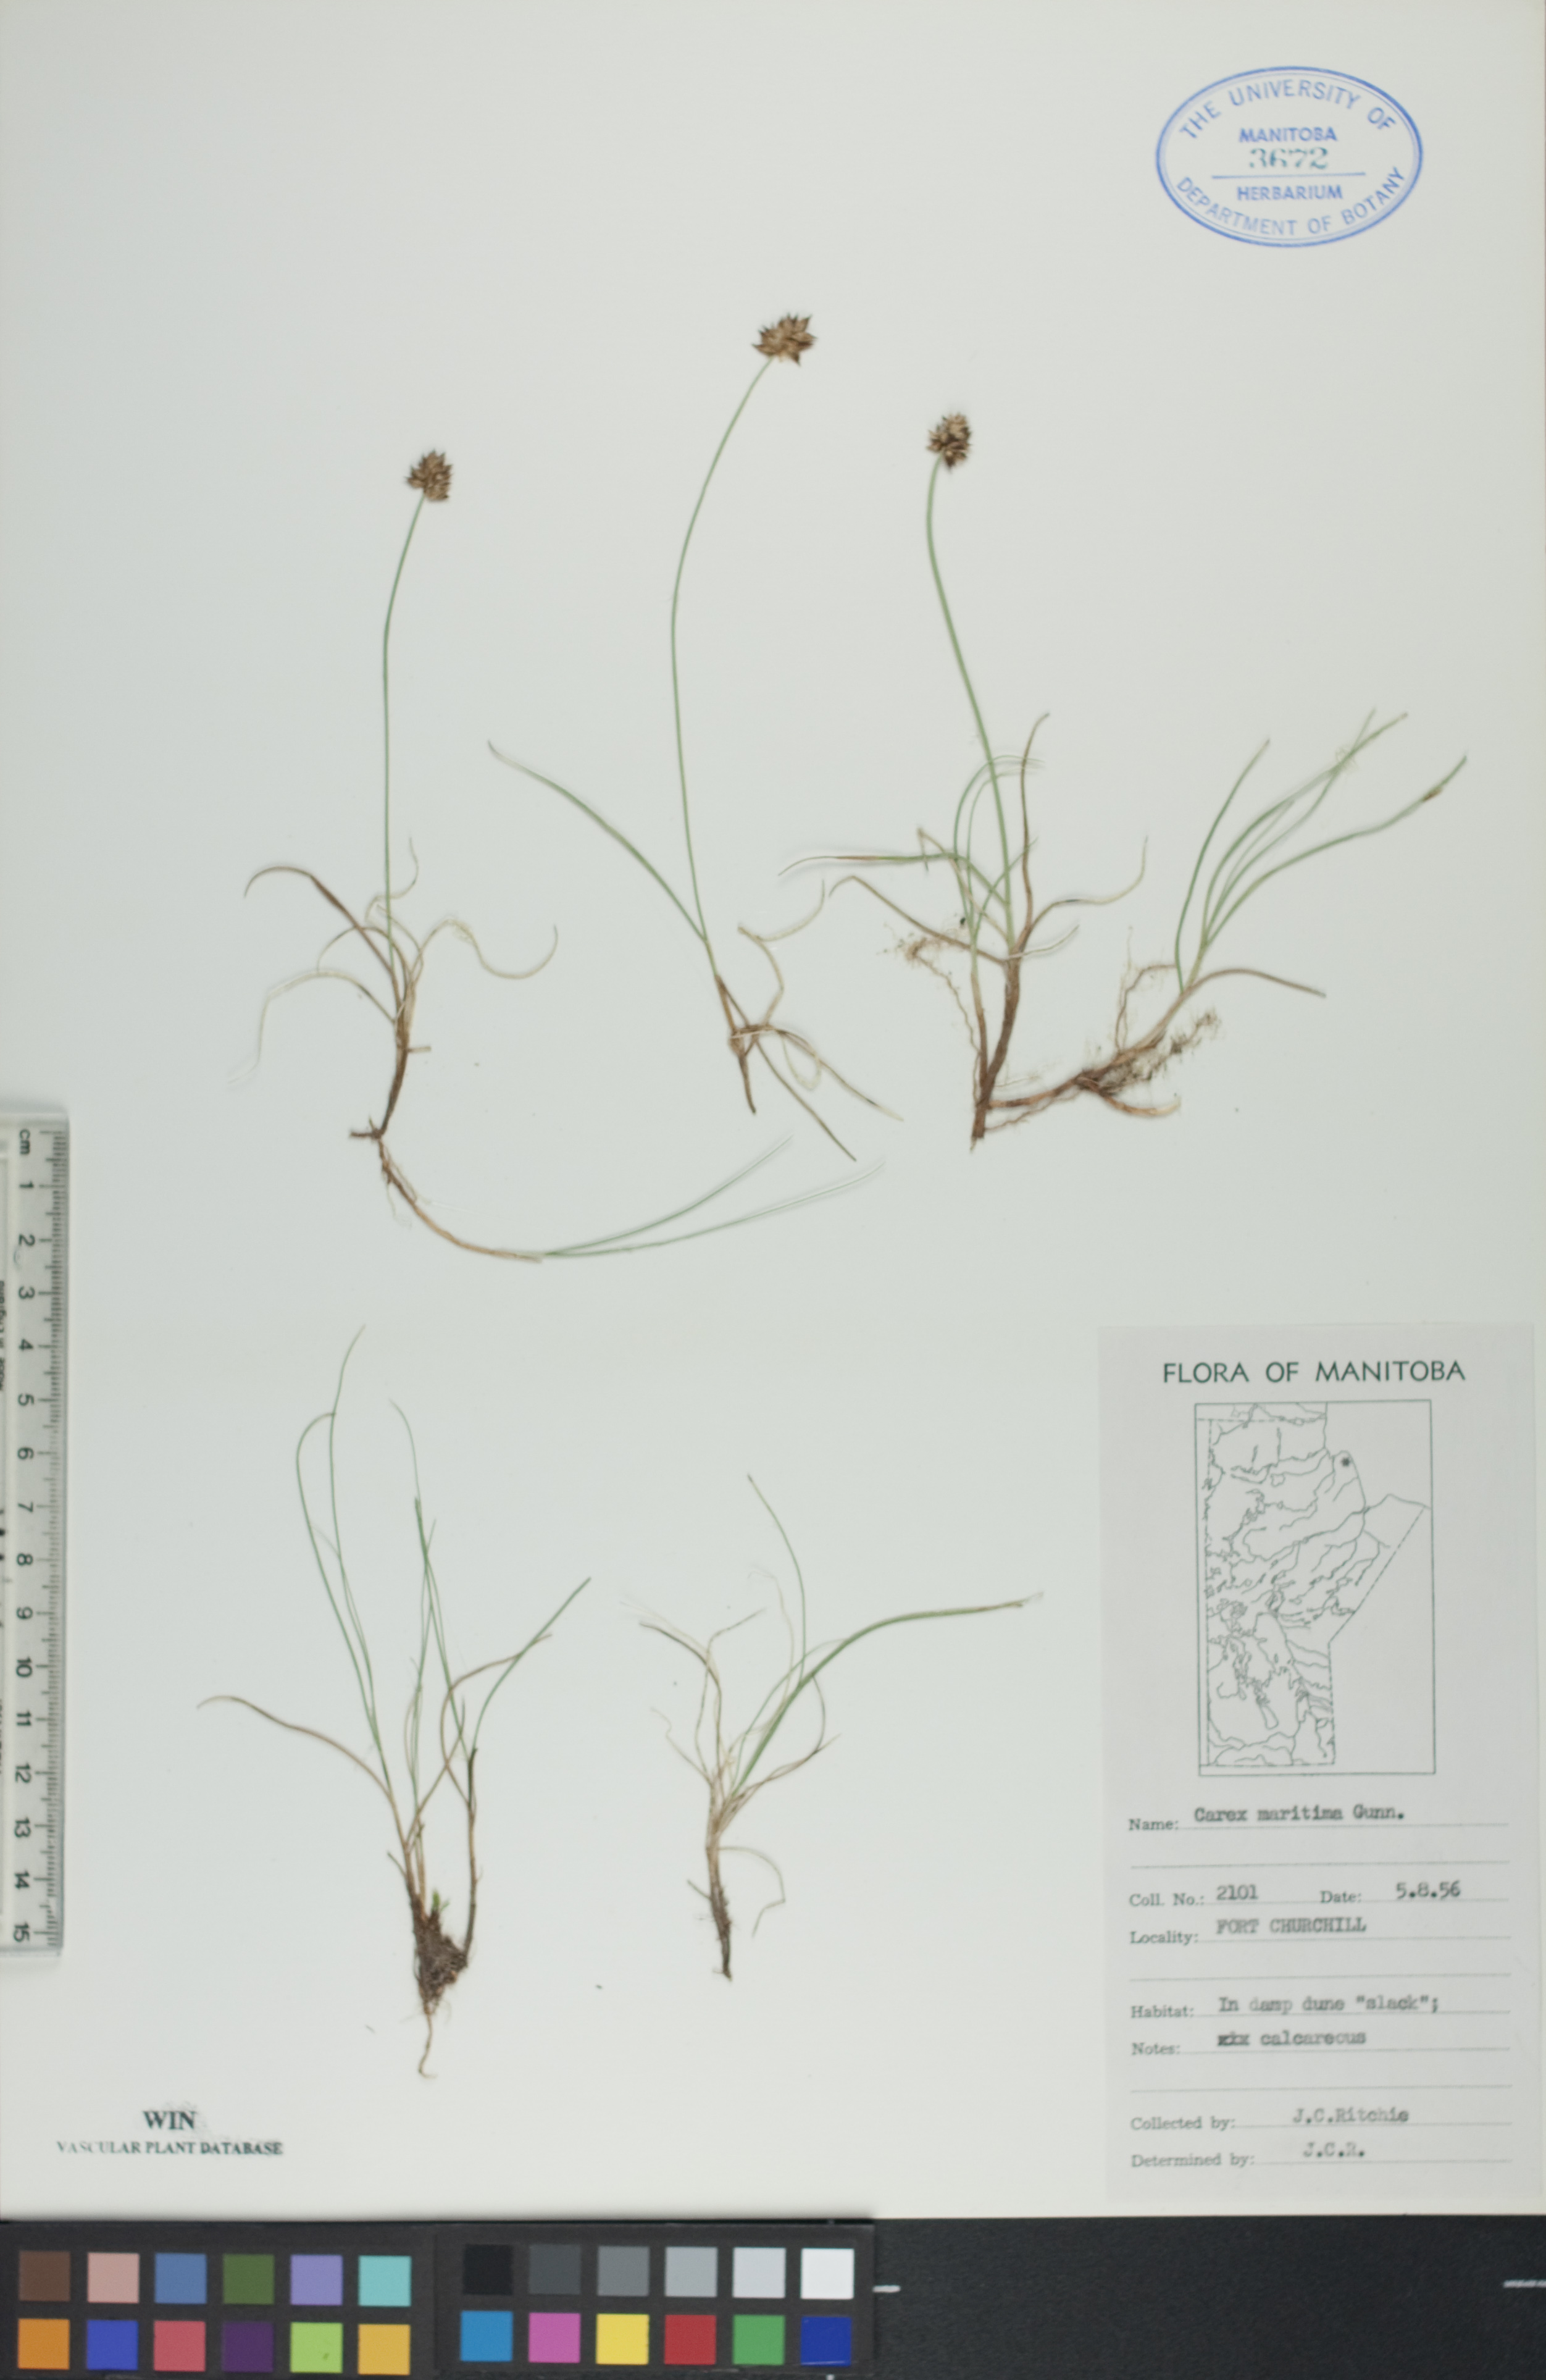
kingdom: Plantae
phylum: Tracheophyta
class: Liliopsida
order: Poales
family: Cyperaceae
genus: Carex
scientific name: Carex maritima
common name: Curved sedge
